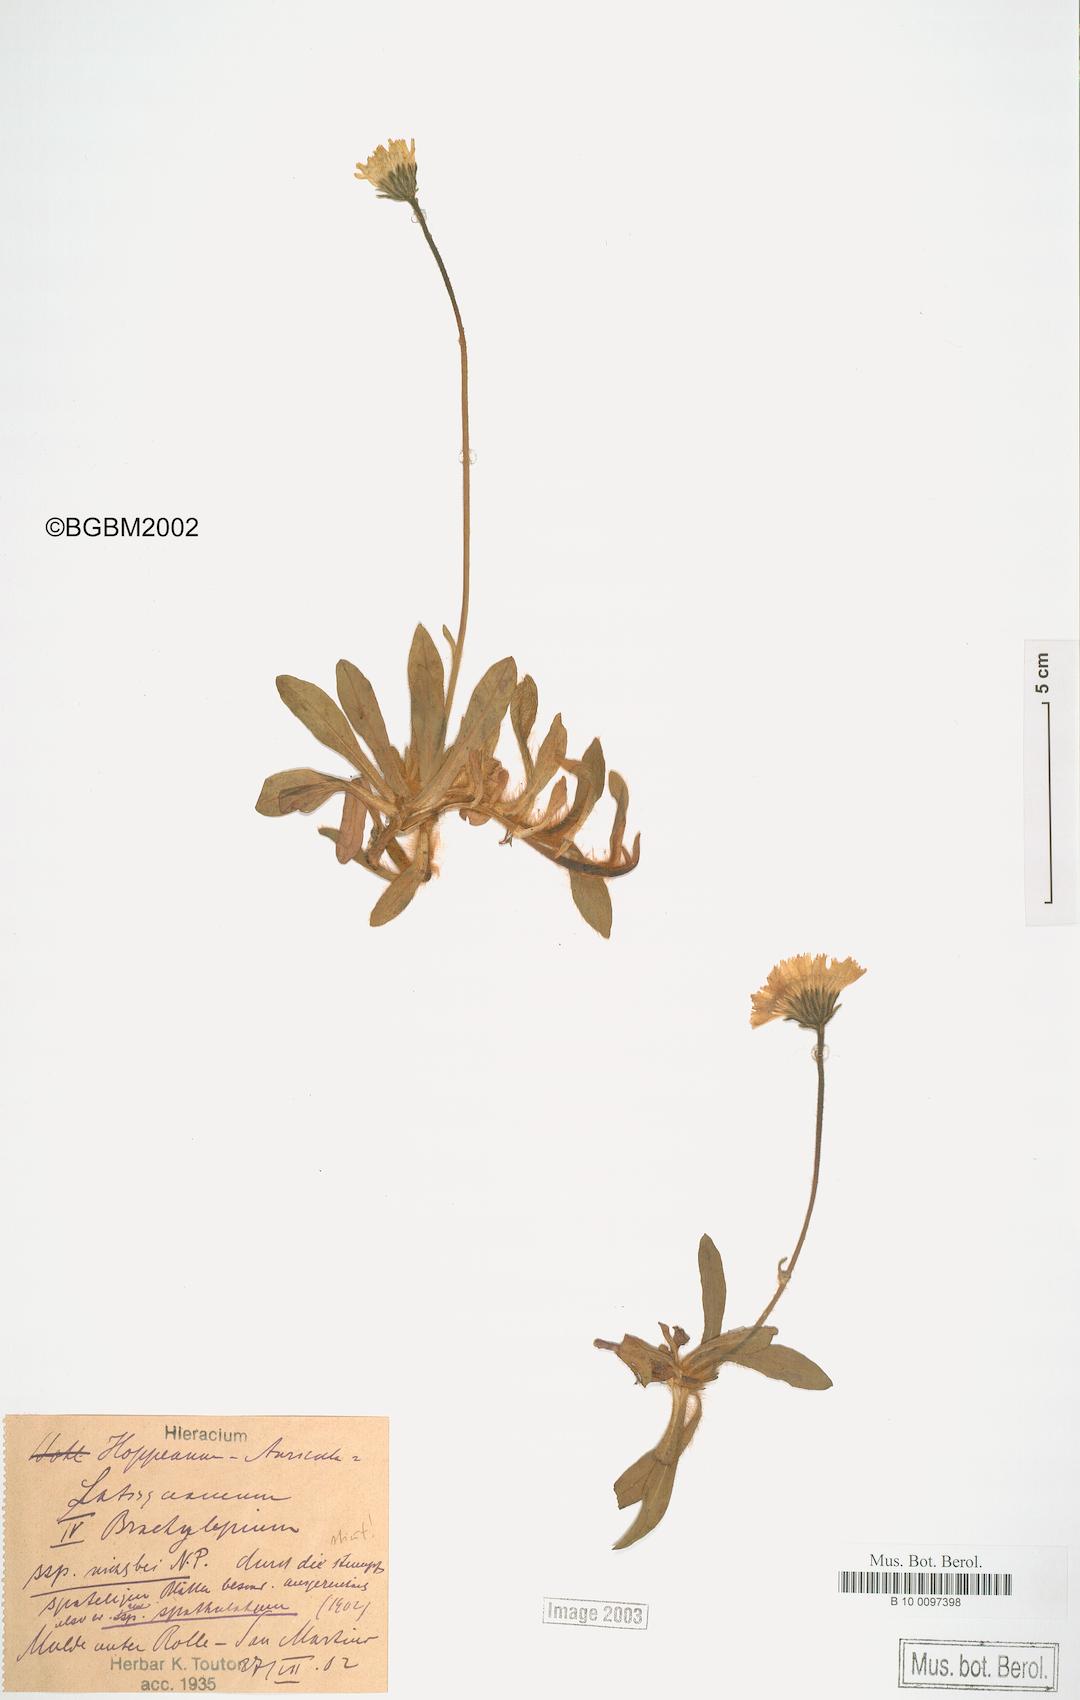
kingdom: Plantae
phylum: Tracheophyta
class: Magnoliopsida
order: Asterales
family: Asteraceae
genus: Pilosella
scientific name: Pilosella viridifolia
